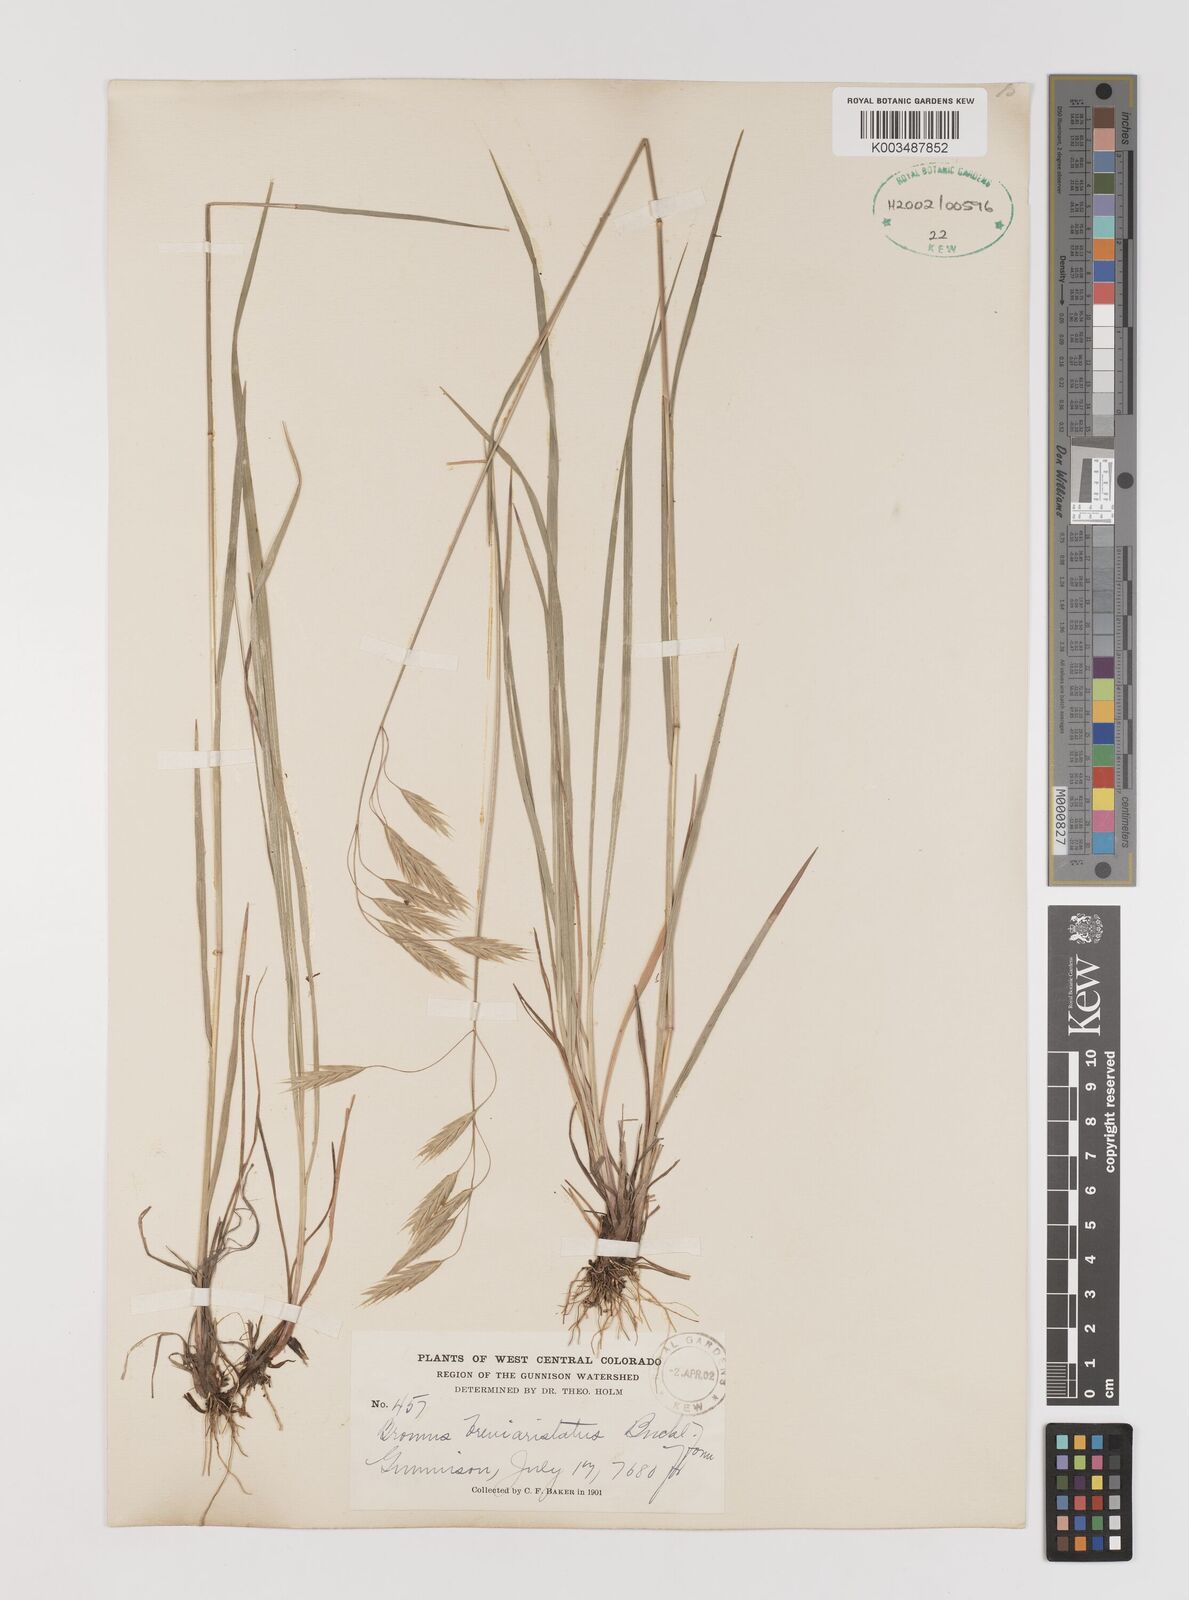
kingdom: Plantae
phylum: Tracheophyta
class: Liliopsida
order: Poales
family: Poaceae
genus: Bromus
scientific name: Bromus catharticus
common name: Rescuegrass
